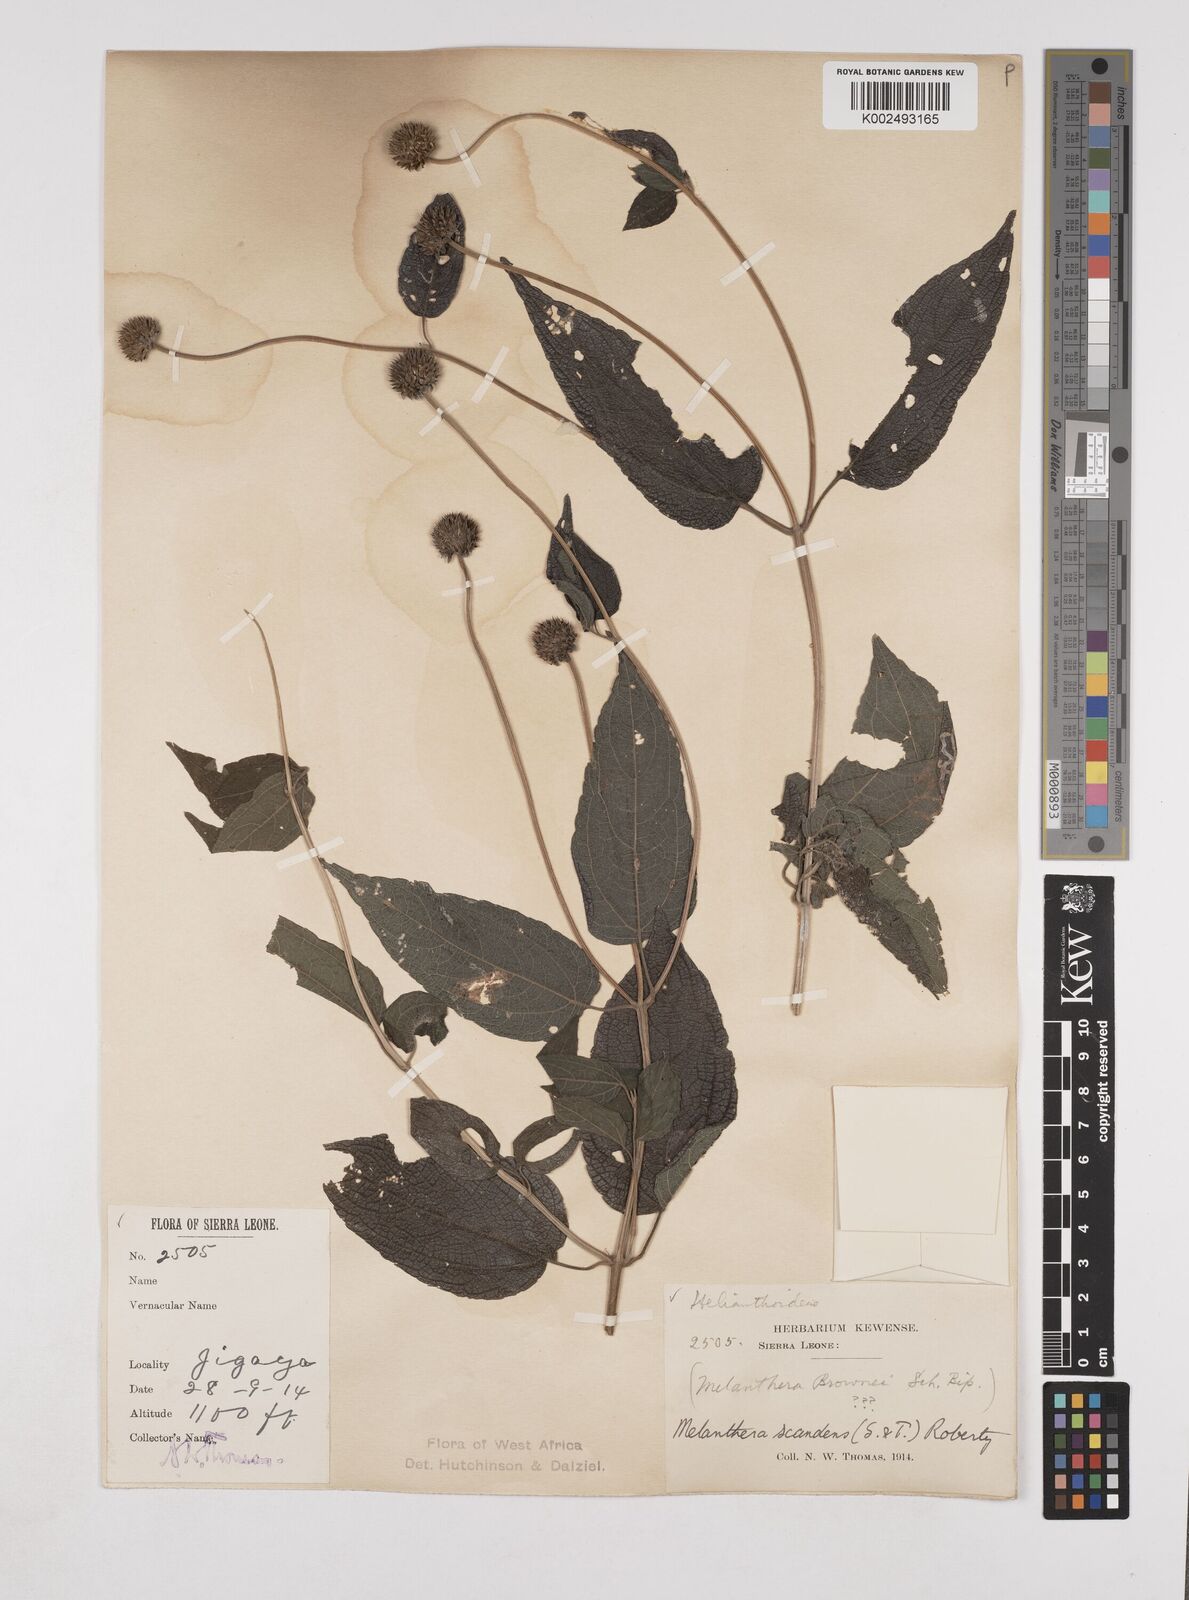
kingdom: Plantae
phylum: Tracheophyta
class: Magnoliopsida
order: Asterales
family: Asteraceae
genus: Lipotriche
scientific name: Lipotriche scandens
